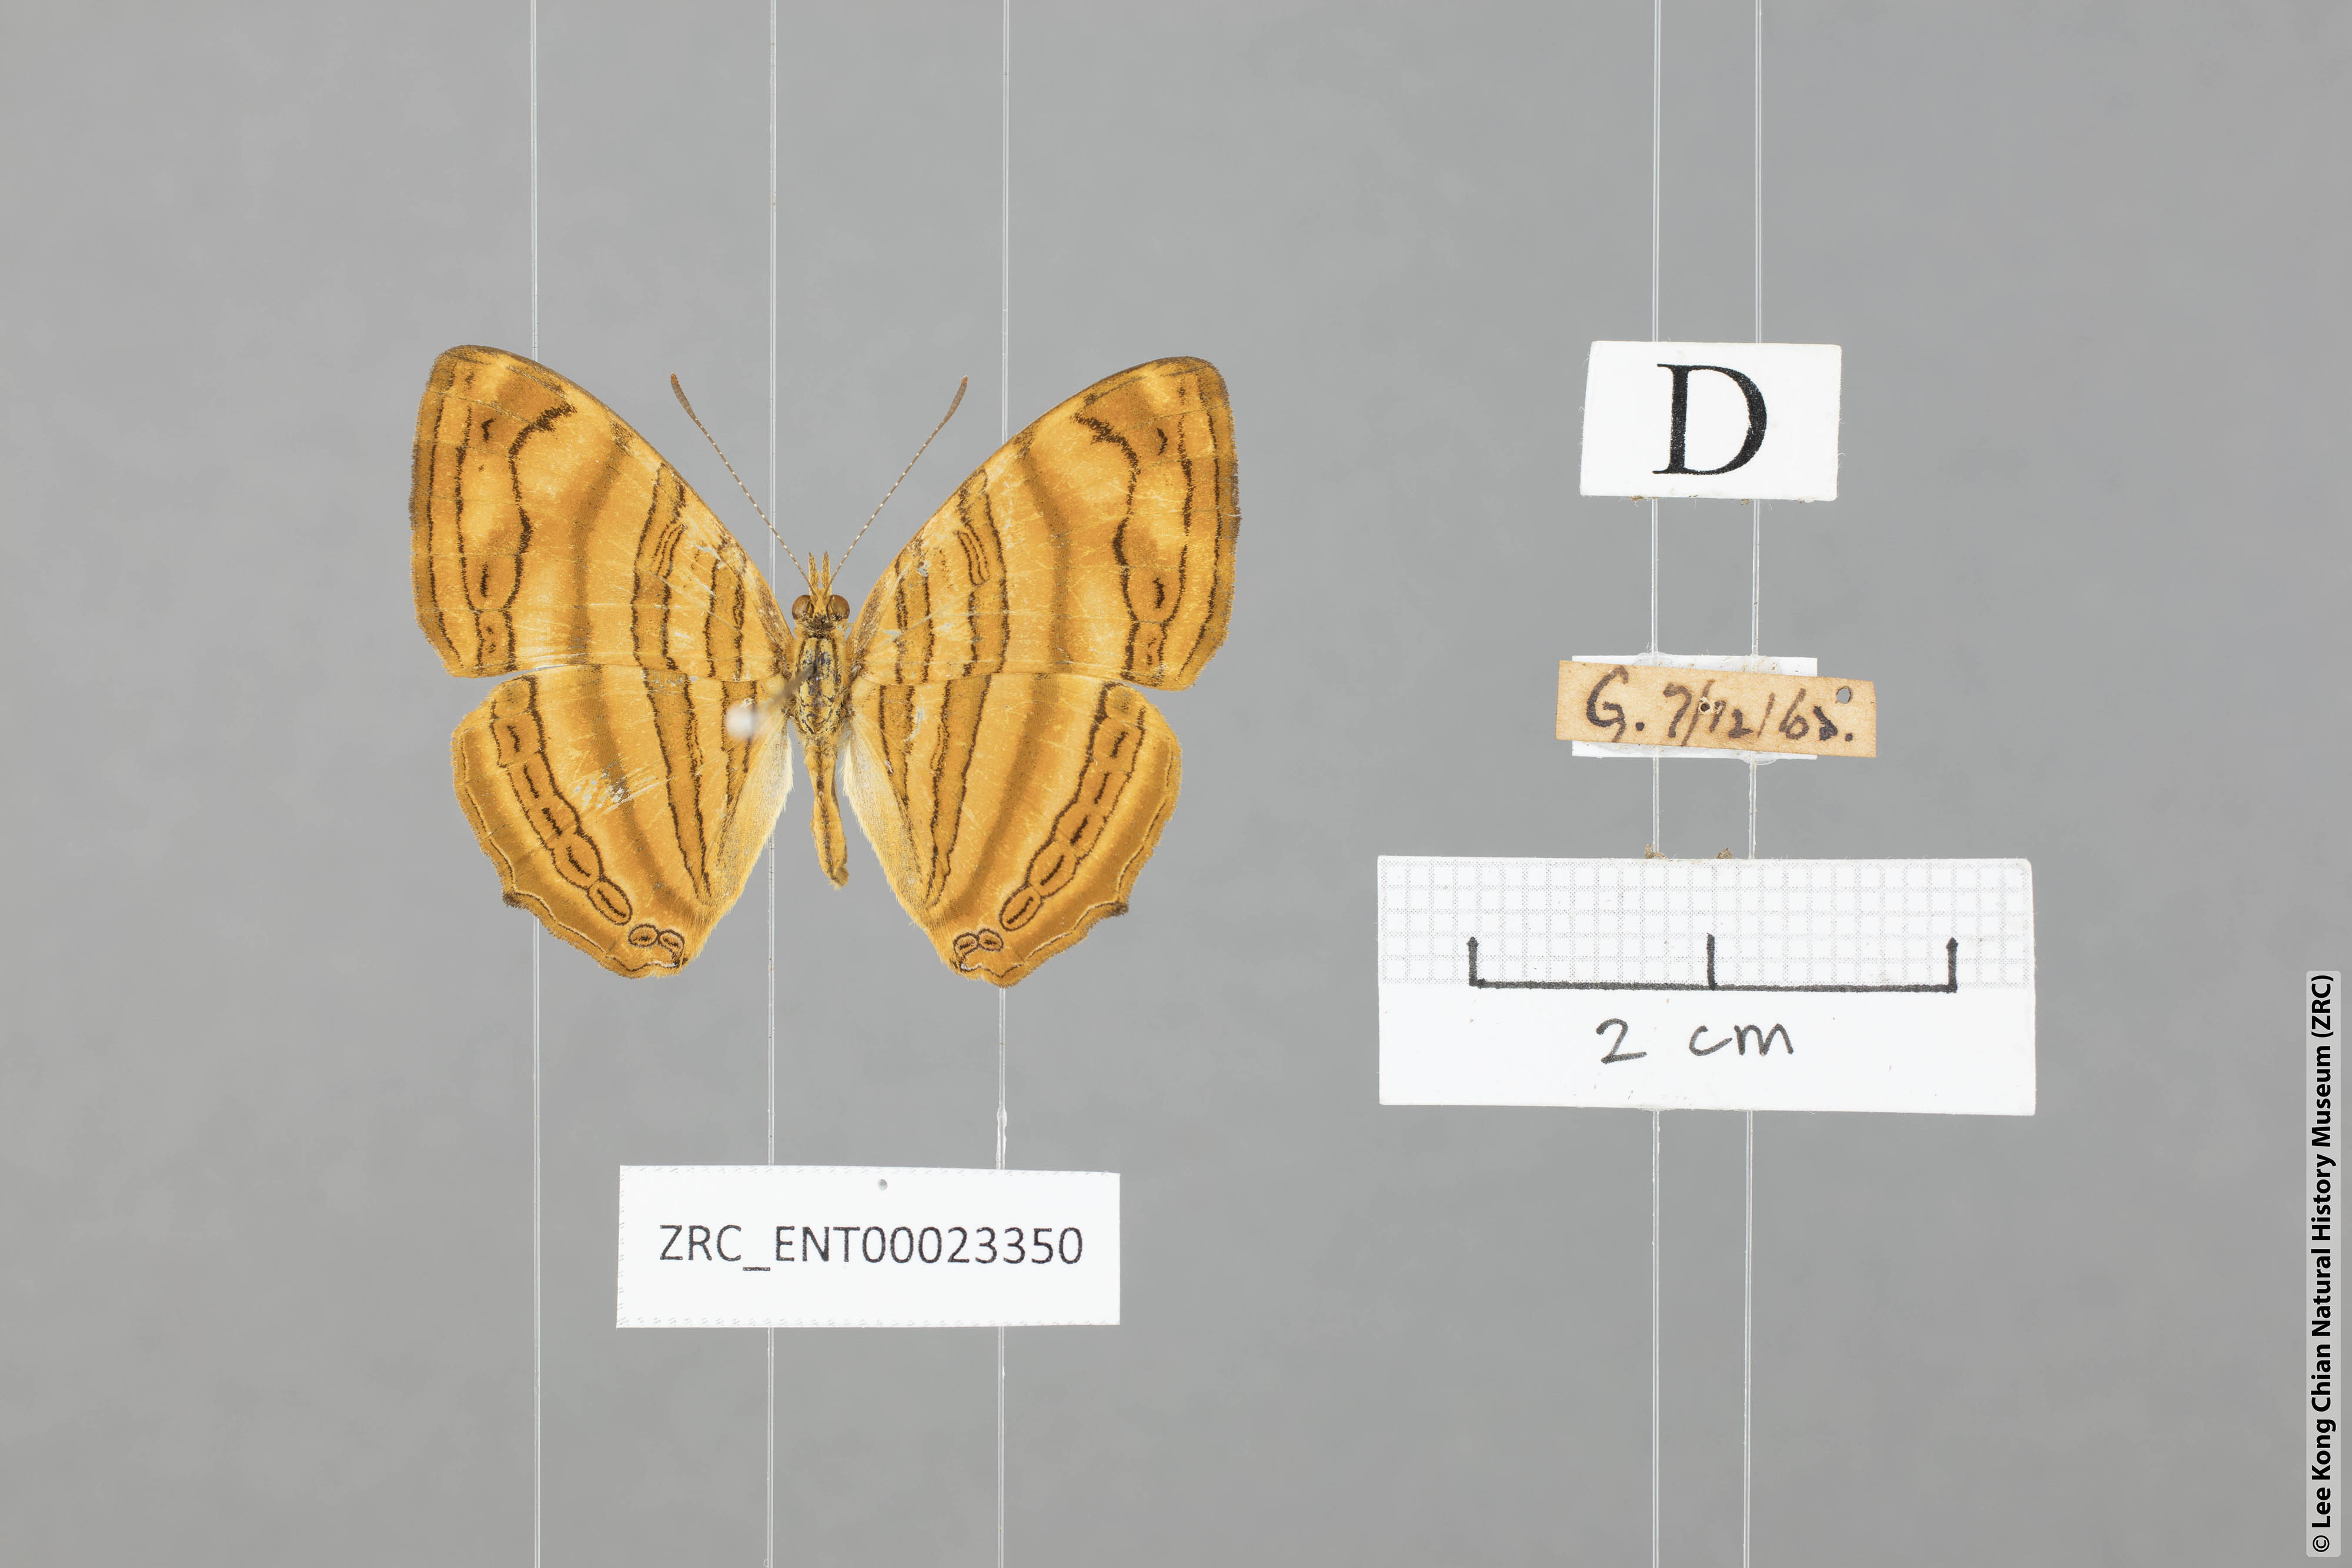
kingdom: Animalia
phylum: Arthropoda
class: Insecta
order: Lepidoptera
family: Nymphalidae
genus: Chersonesia
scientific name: Chersonesia intermedia
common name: Intermediate maplet
